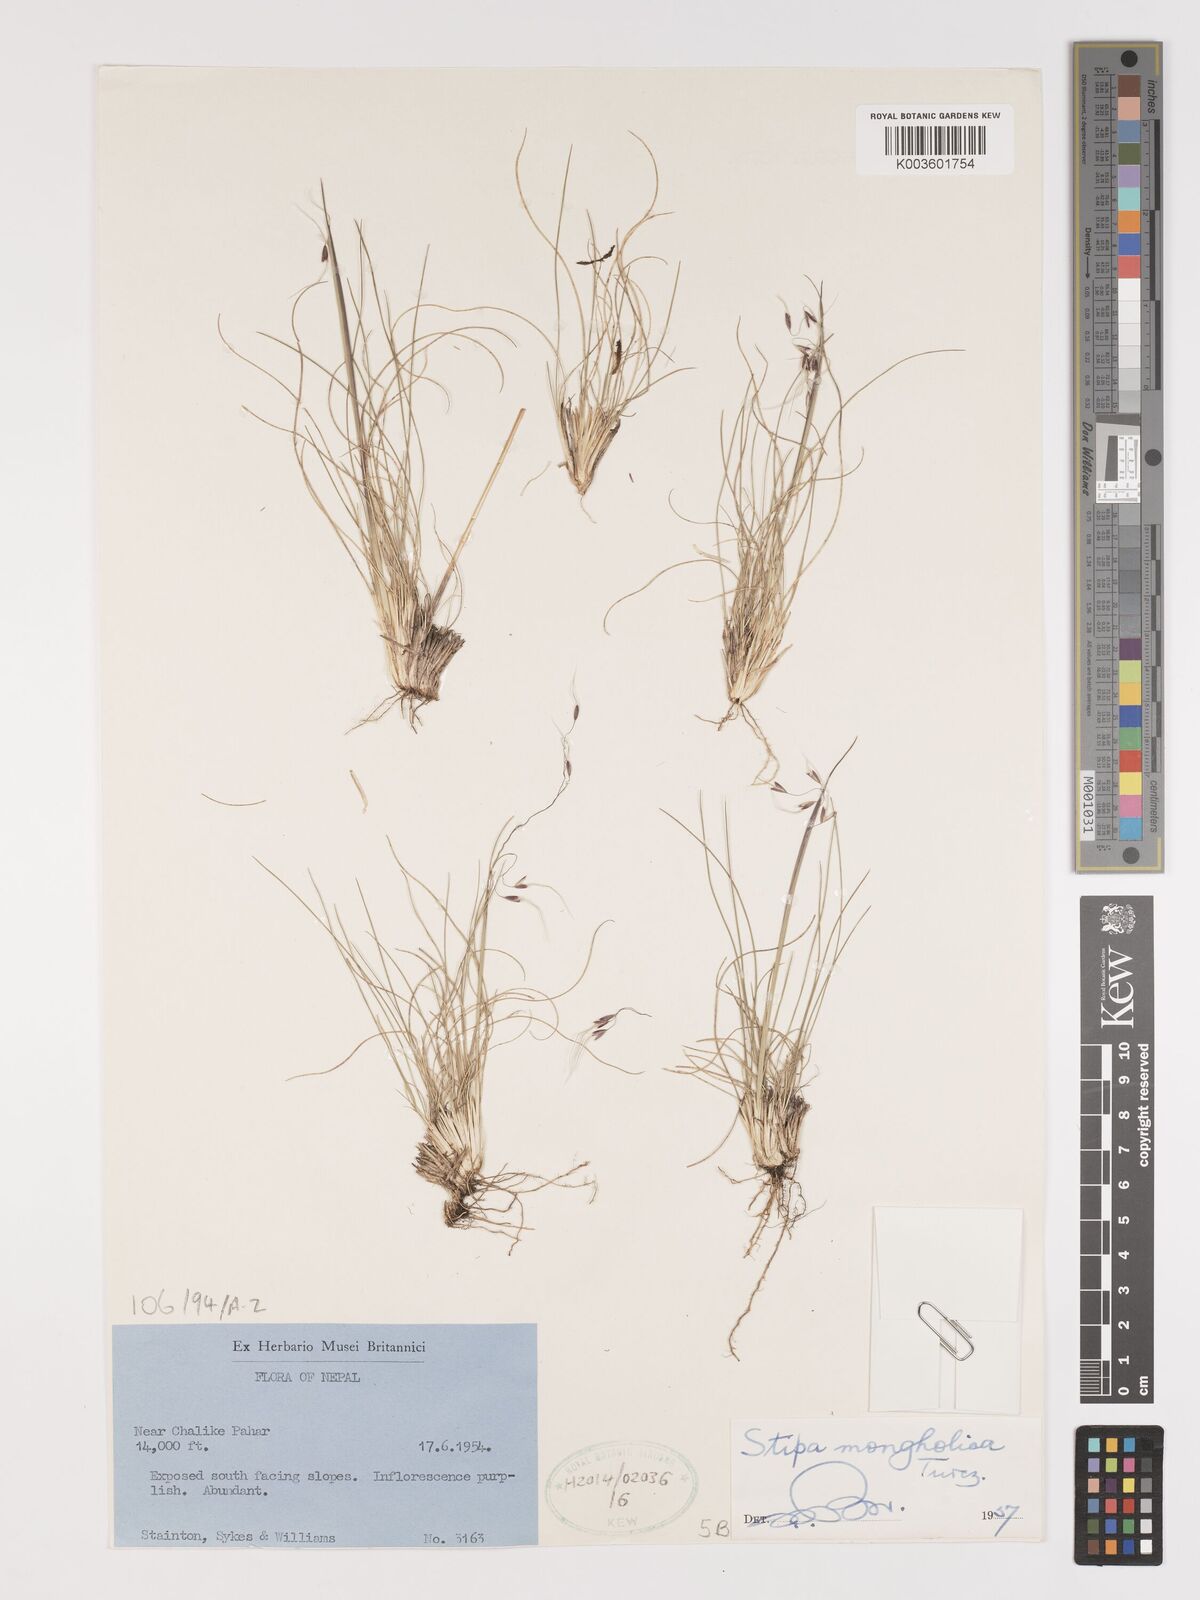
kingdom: Plantae
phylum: Tracheophyta
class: Liliopsida
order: Poales
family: Poaceae
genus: Ptilagrostis
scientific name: Ptilagrostis mongholica
